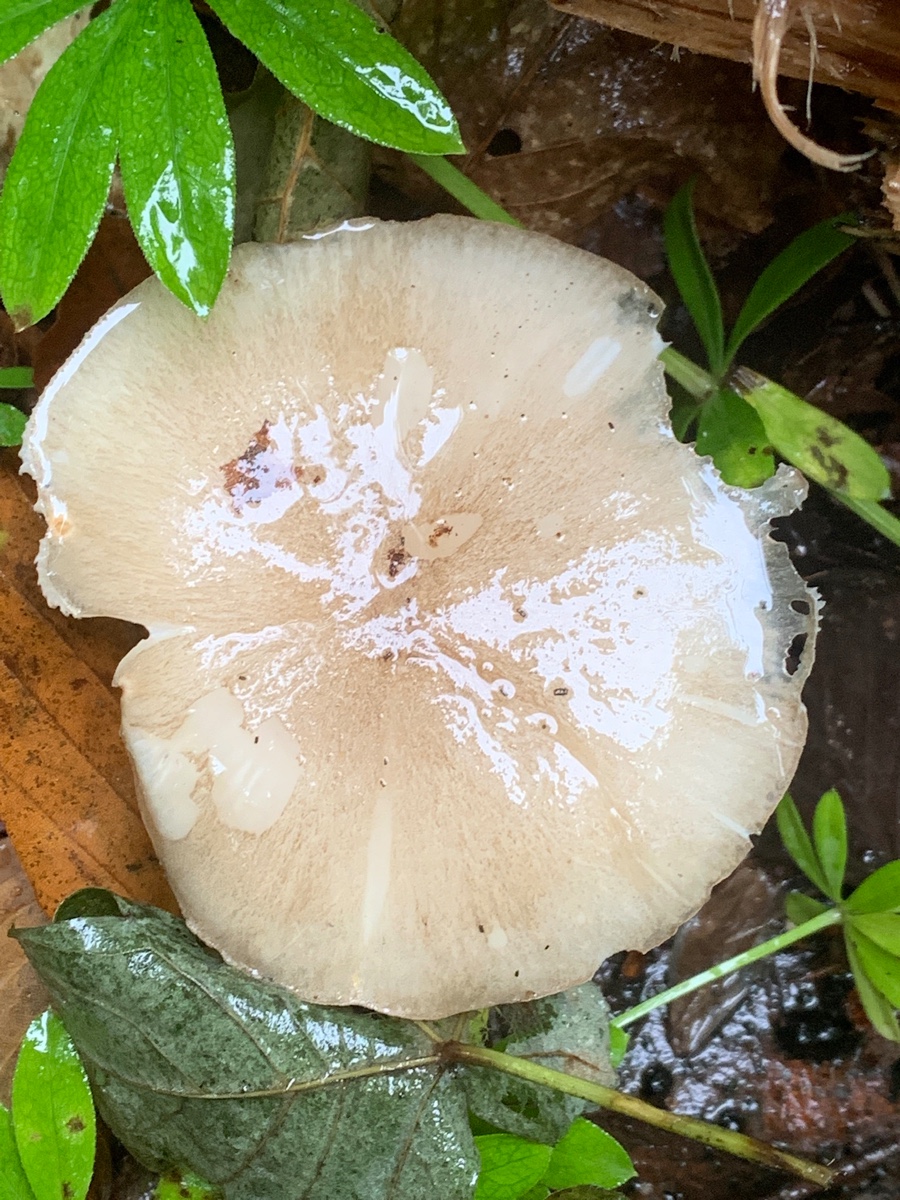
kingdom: Fungi
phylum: Basidiomycota
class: Agaricomycetes
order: Agaricales
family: Tricholomataceae
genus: Megacollybia
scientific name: Megacollybia platyphylla
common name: bredbladet væbnerhat
